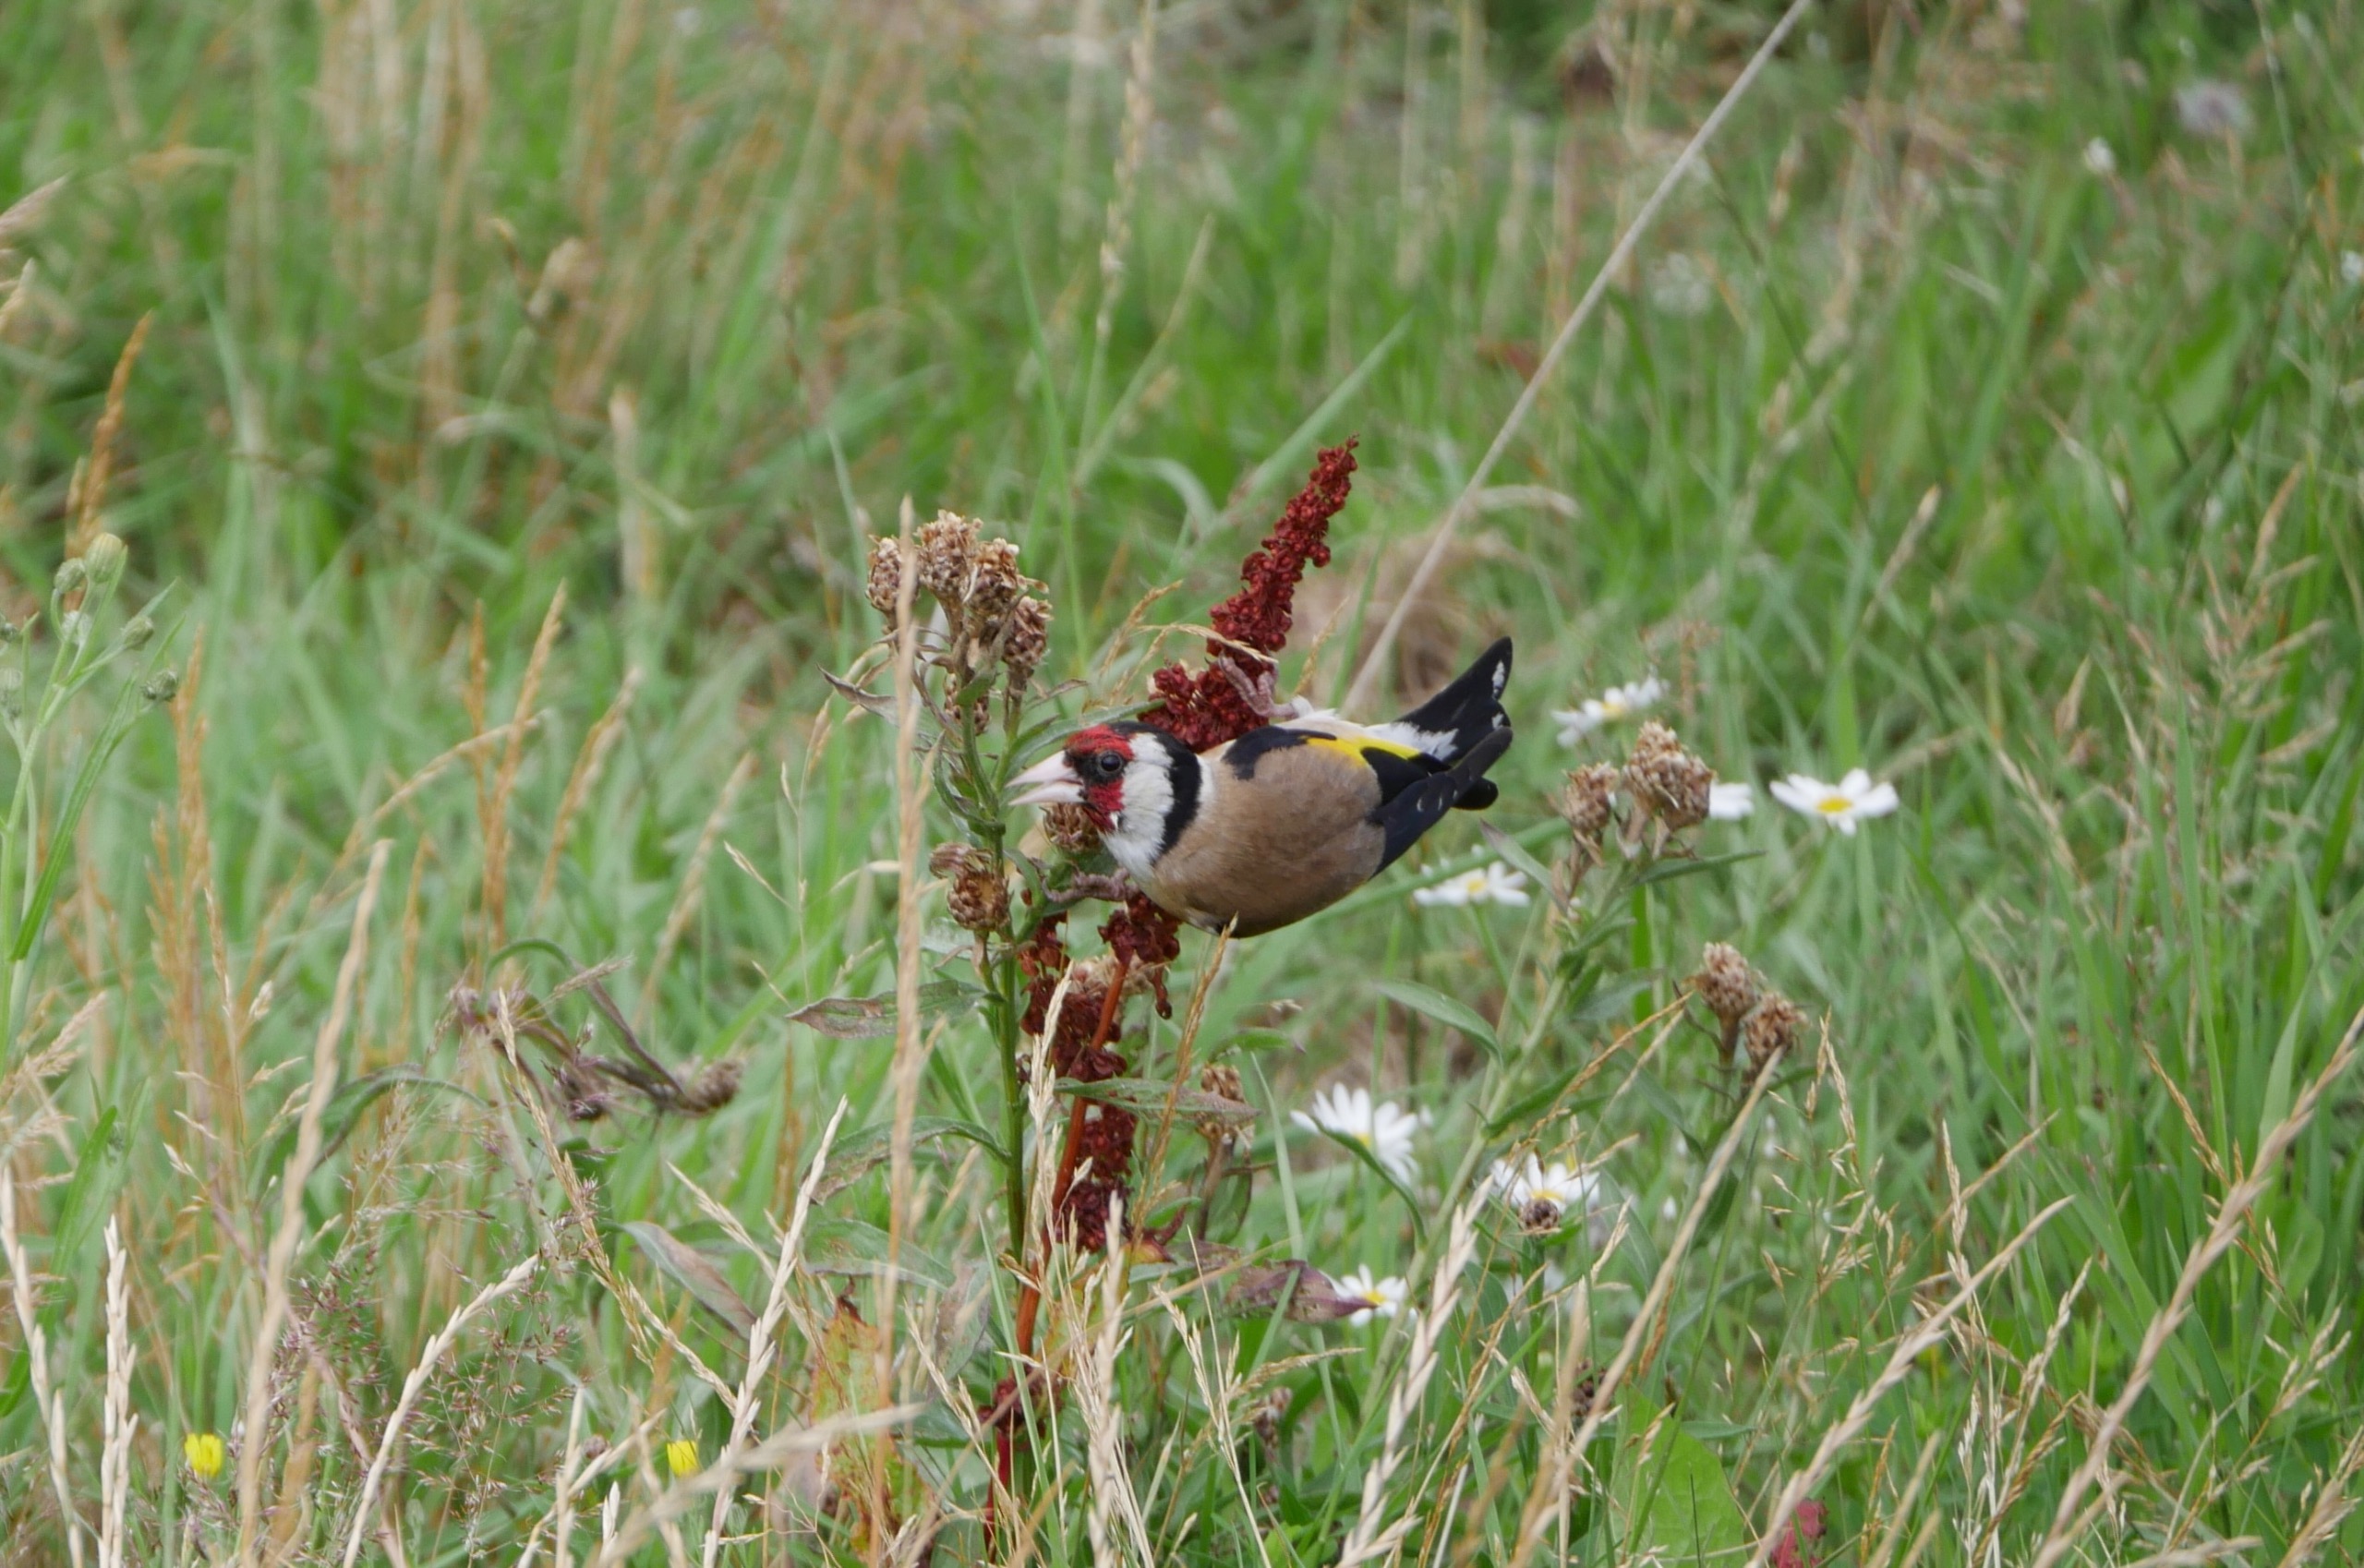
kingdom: Animalia
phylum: Chordata
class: Aves
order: Passeriformes
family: Fringillidae
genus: Carduelis
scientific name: Carduelis carduelis
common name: Stillits
